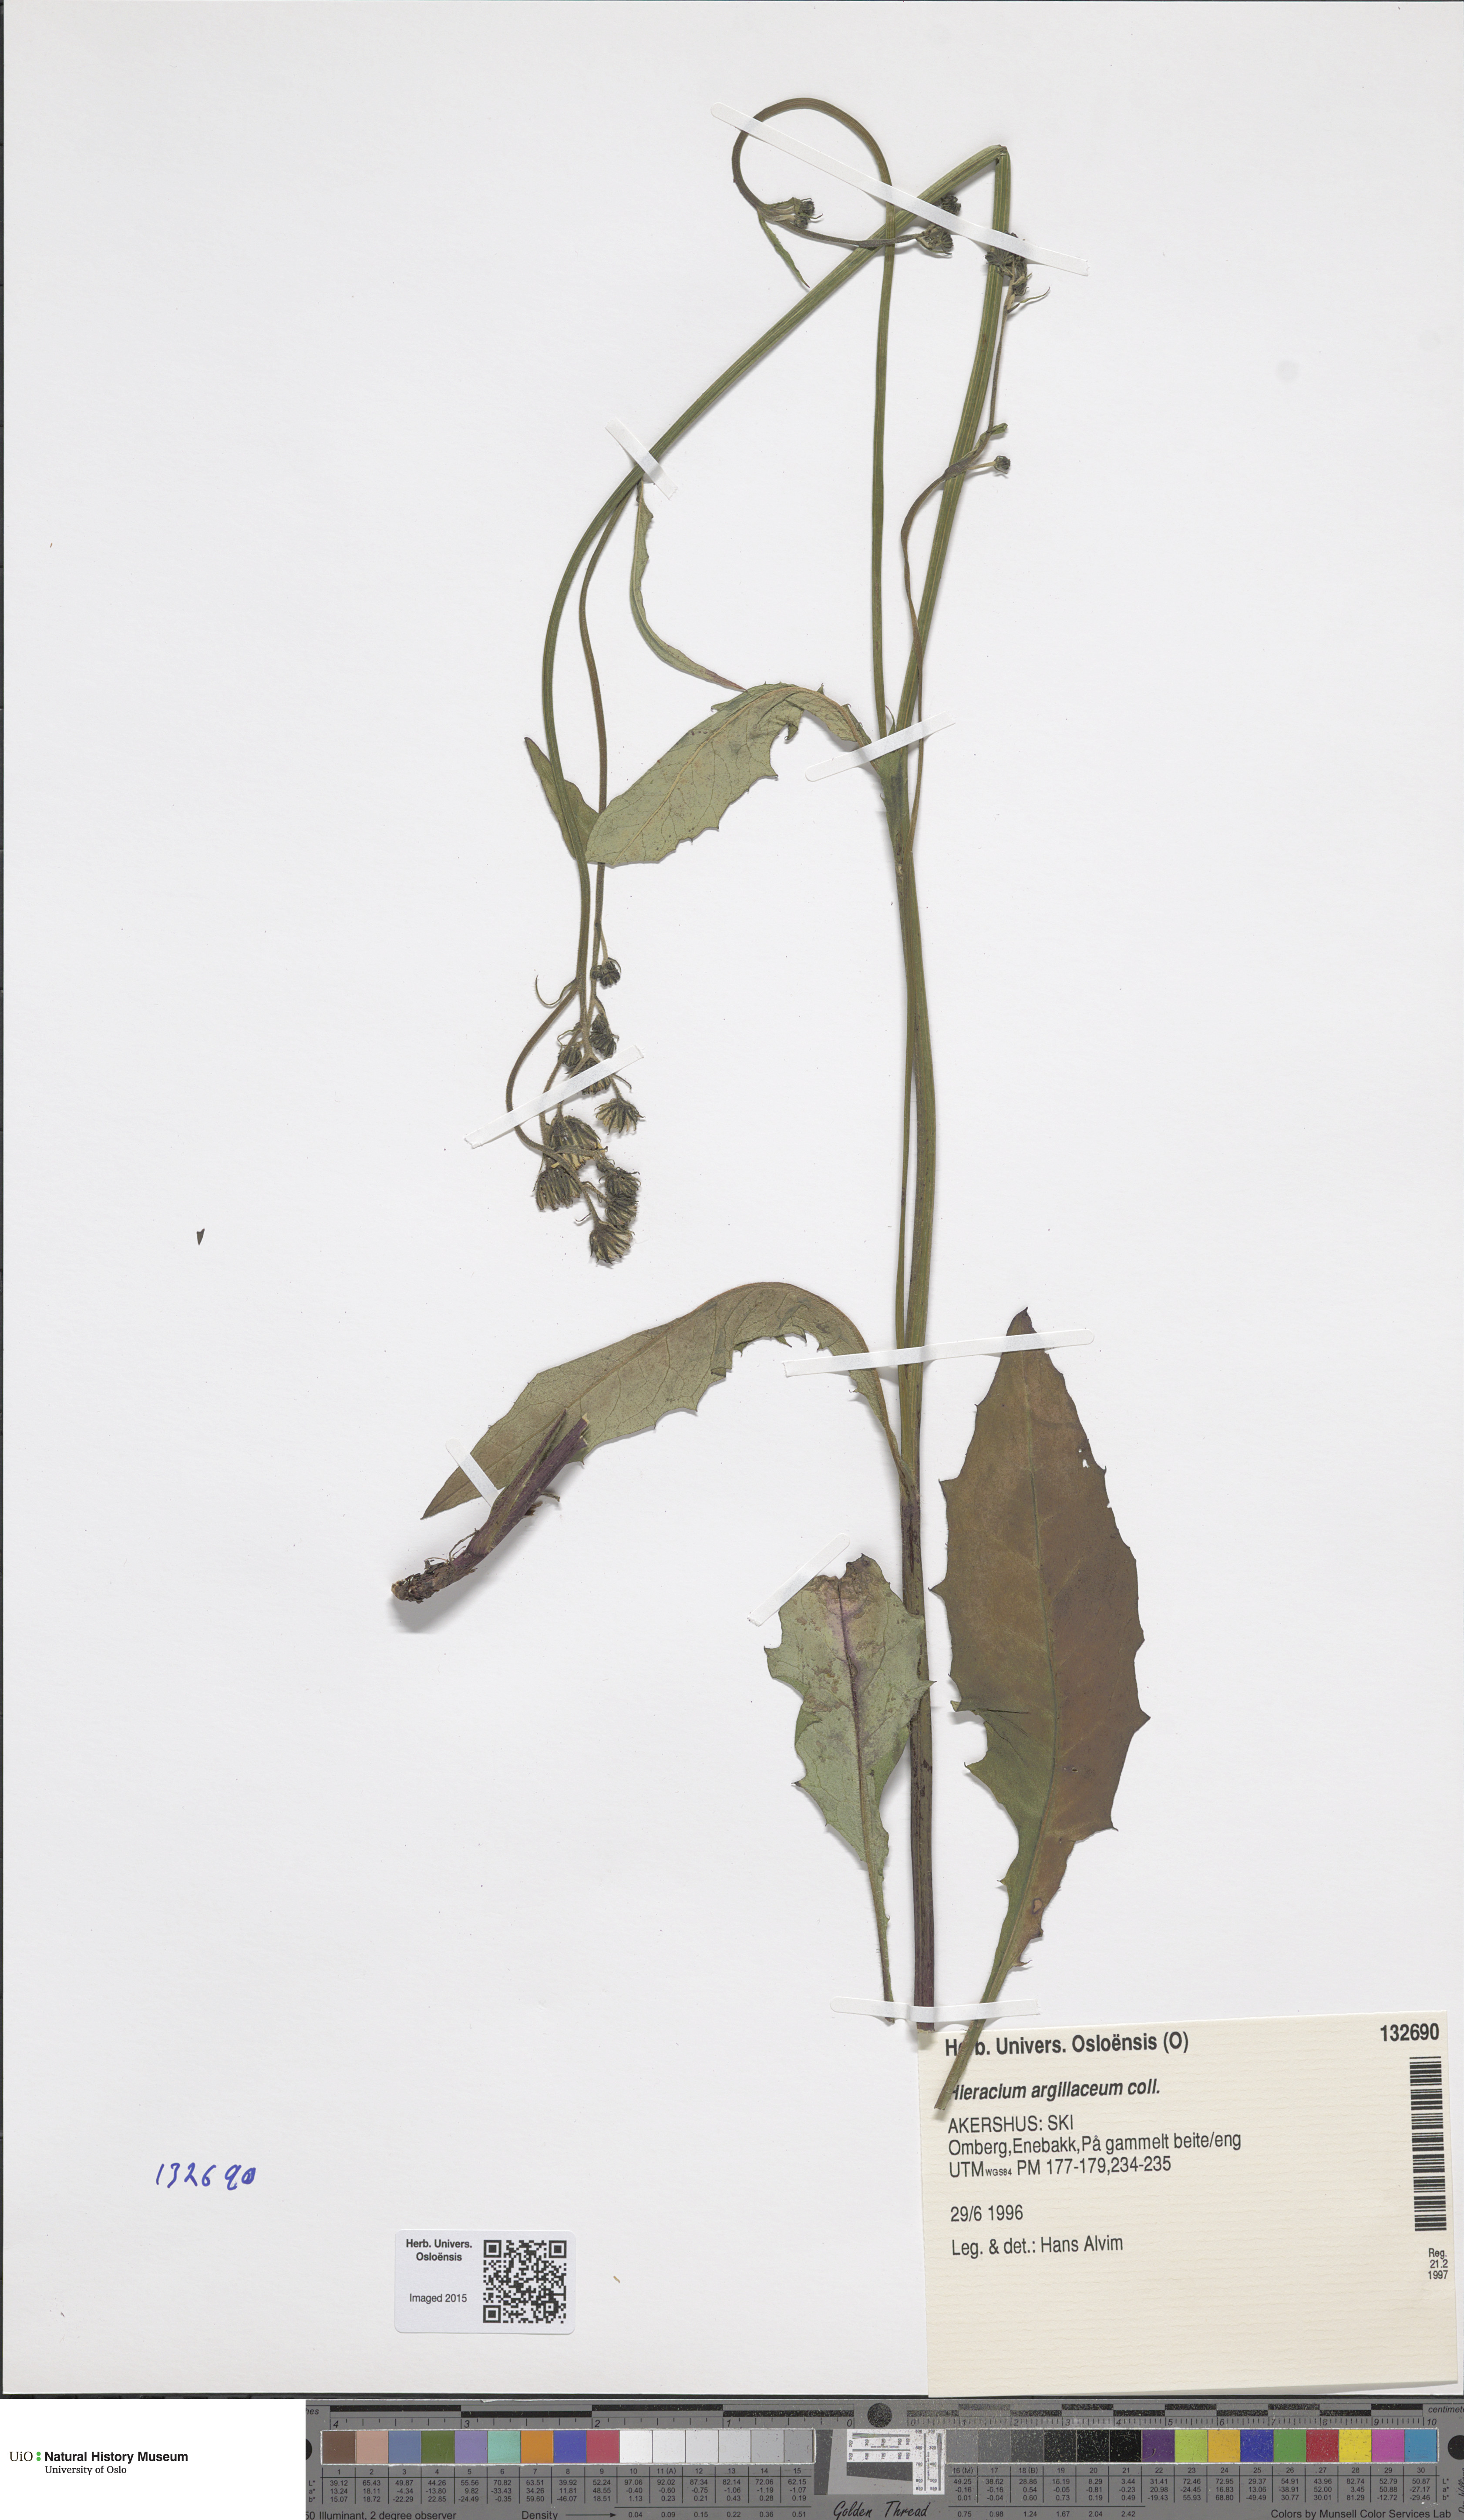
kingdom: Plantae
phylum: Tracheophyta
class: Magnoliopsida
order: Asterales
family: Asteraceae
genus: Hieracium
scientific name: Hieracium lachenalii
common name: Common hawkweed
